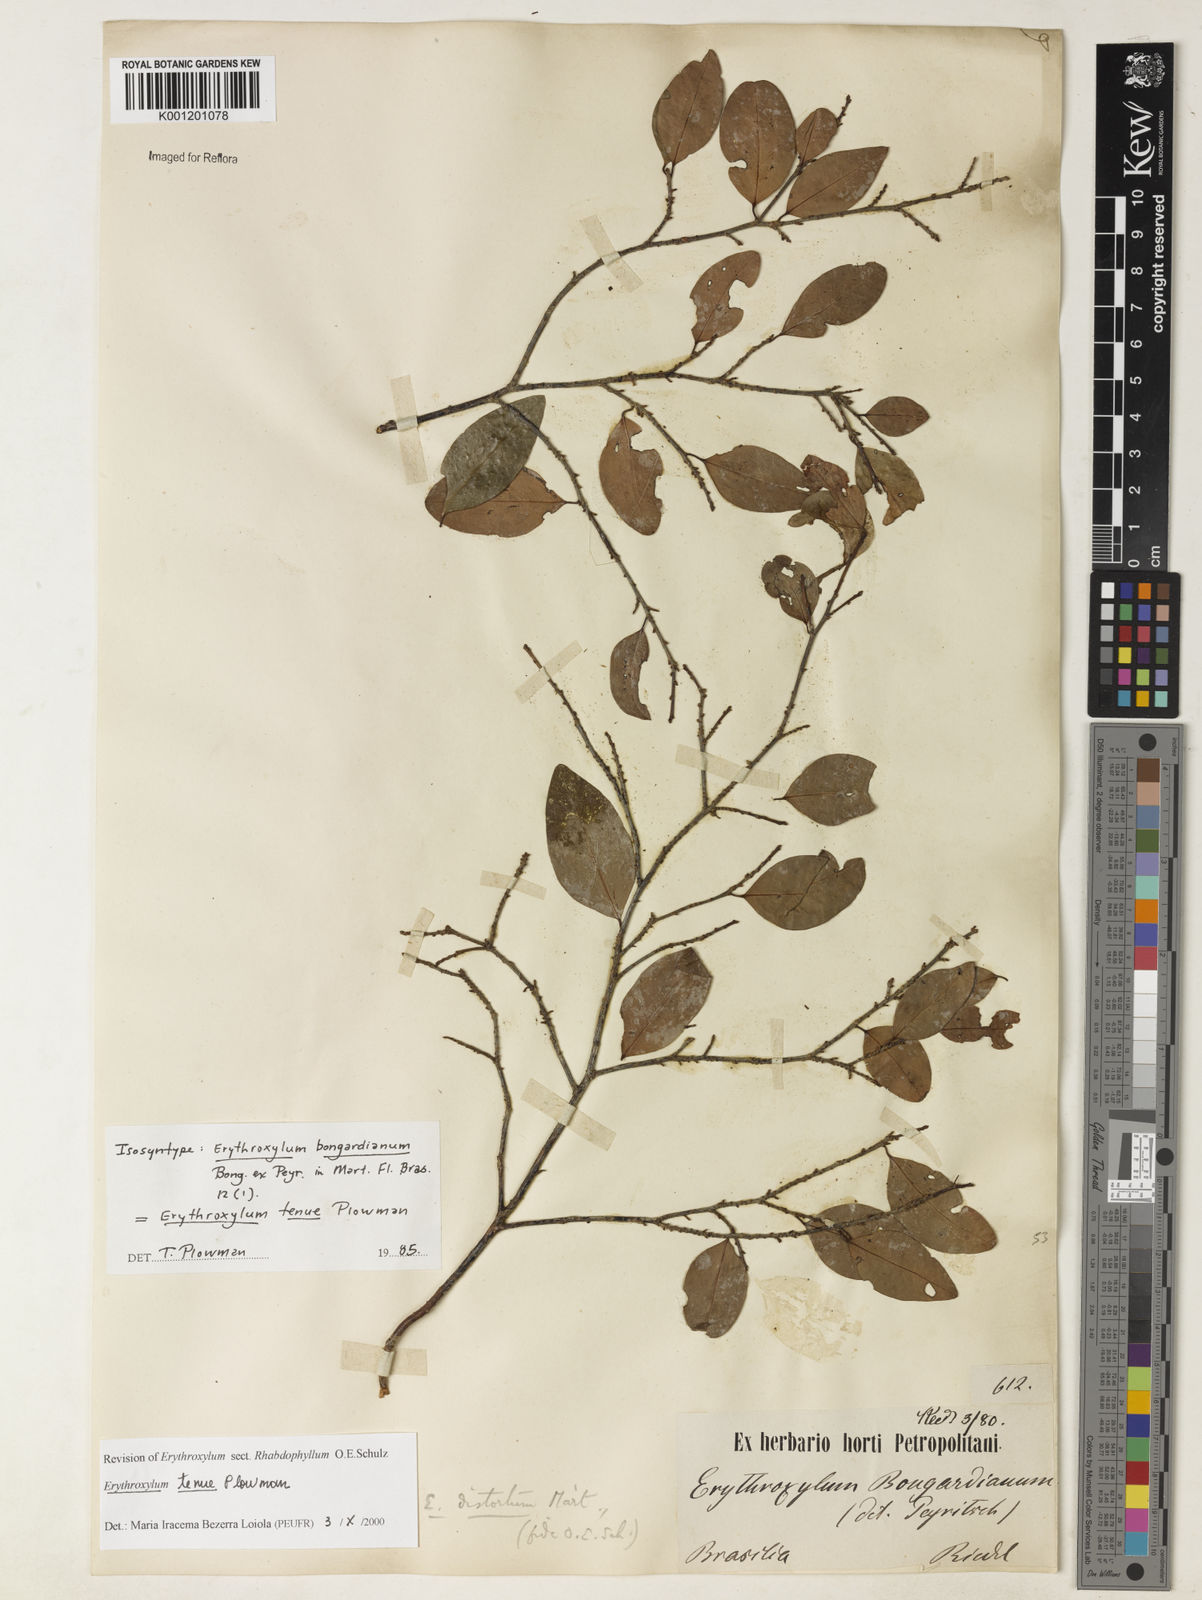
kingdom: Plantae
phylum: Tracheophyta
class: Magnoliopsida
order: Malpighiales
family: Erythroxylaceae
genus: Erythroxylum
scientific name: Erythroxylum passerinum
